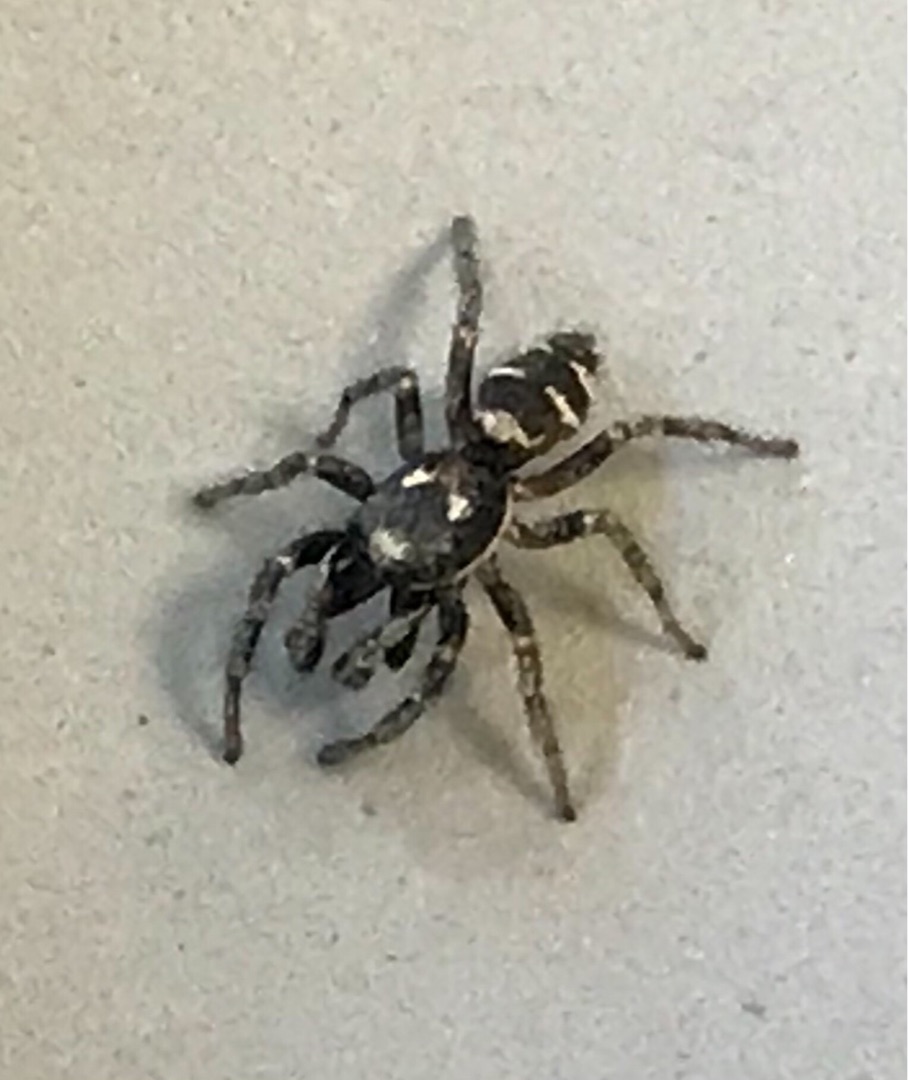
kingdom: Animalia
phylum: Arthropoda
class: Arachnida
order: Araneae
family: Salticidae
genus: Salticus
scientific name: Salticus scenicus
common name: Almindelig zebraedderkop
